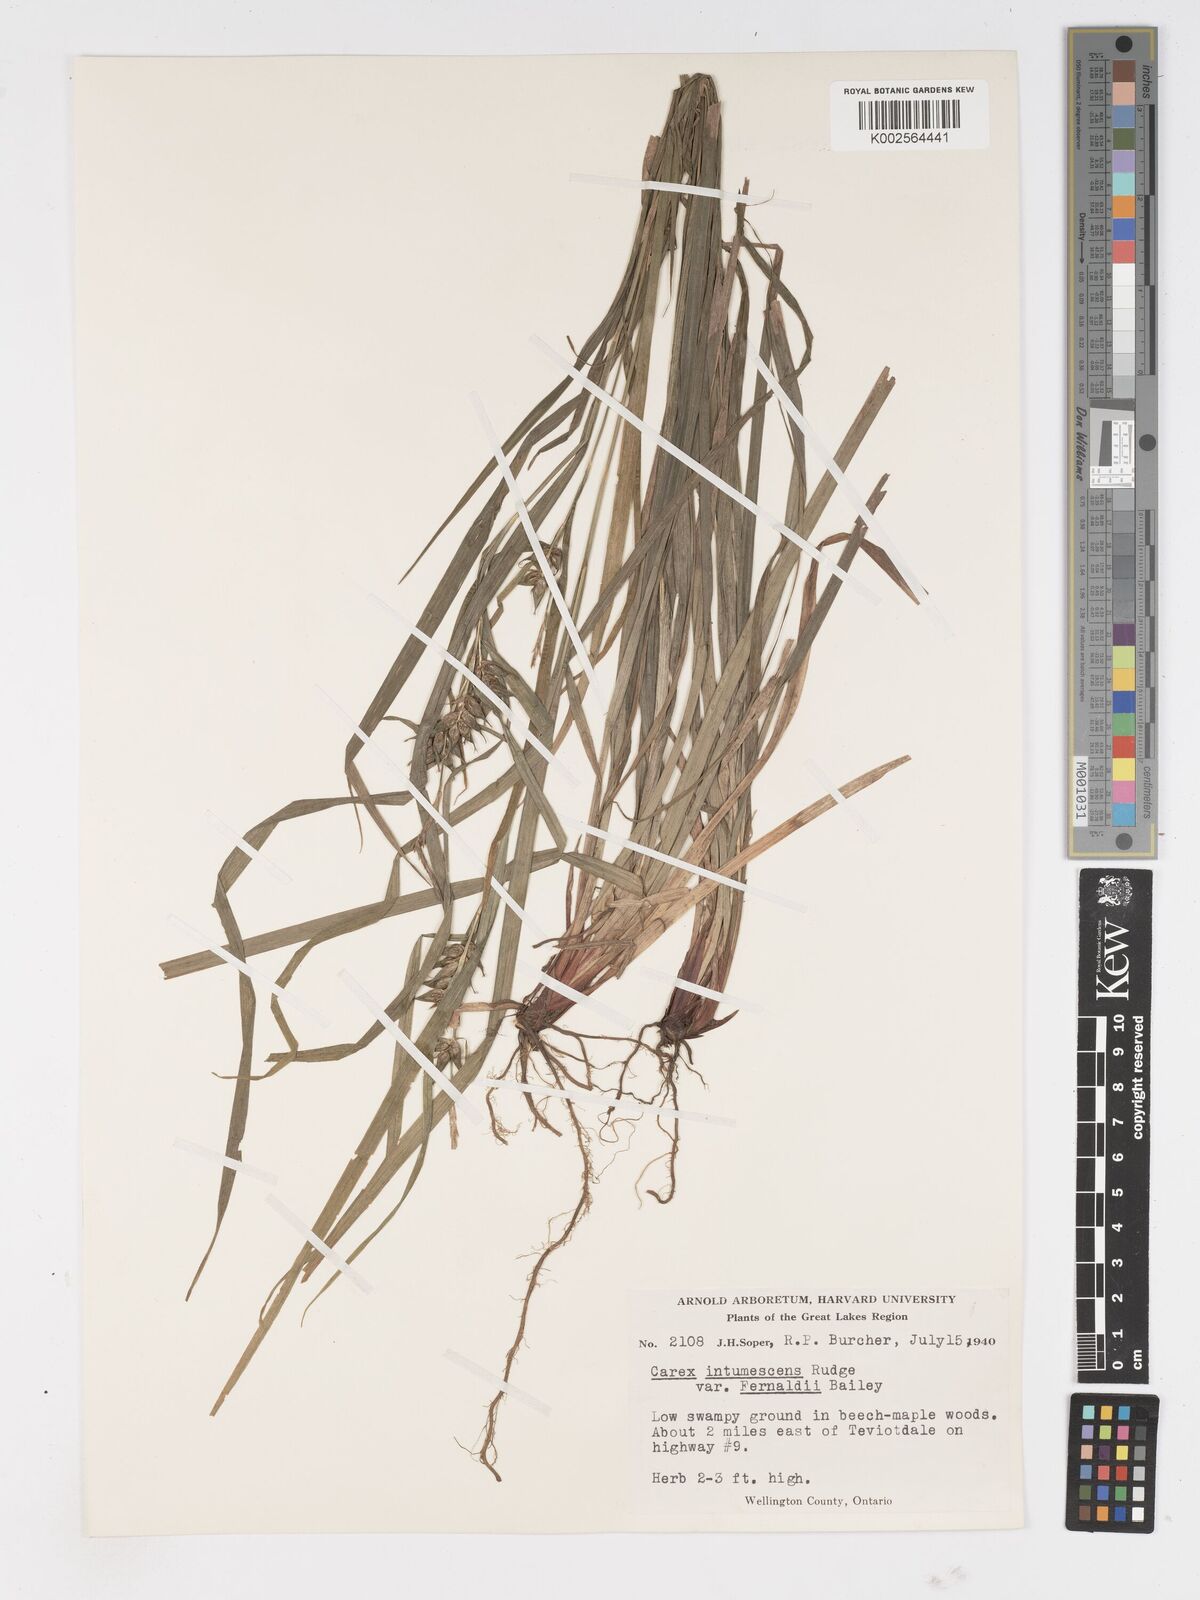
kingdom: Plantae
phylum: Tracheophyta
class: Liliopsida
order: Poales
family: Cyperaceae
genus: Carex
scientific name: Carex intumescens
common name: Greater bladder sedge
